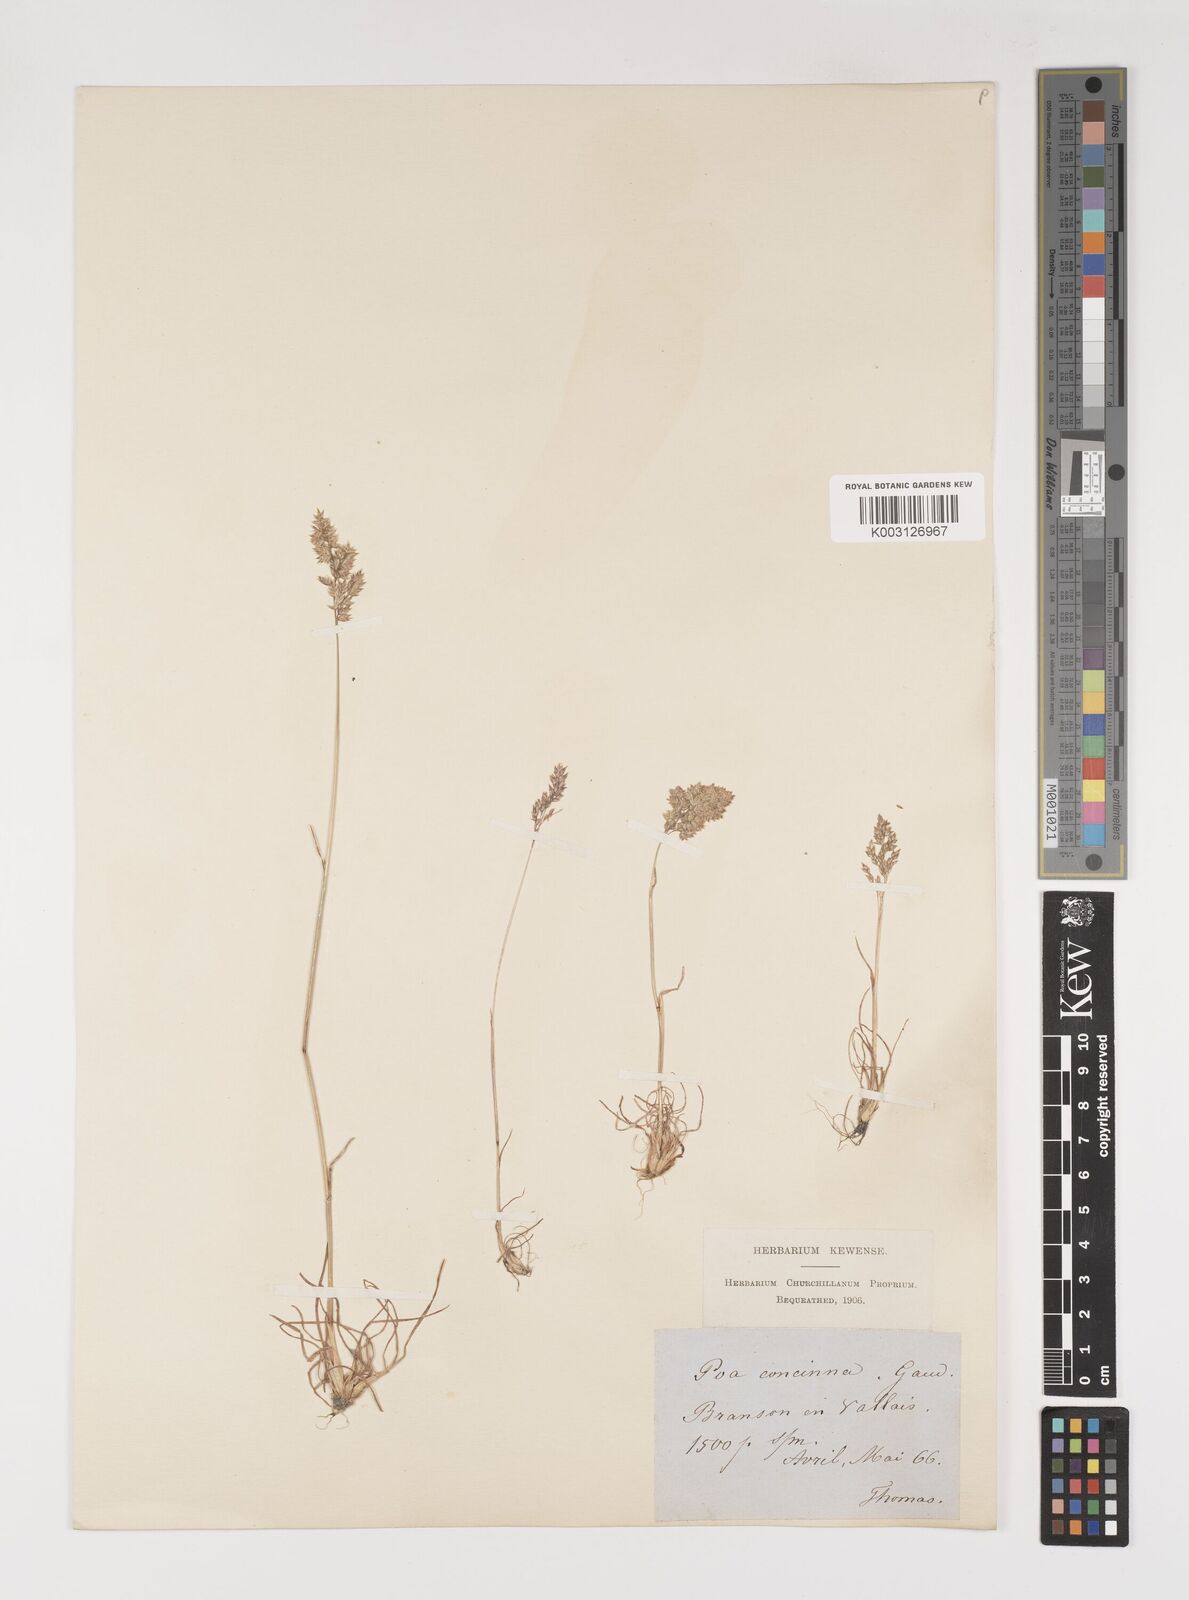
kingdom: Plantae
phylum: Tracheophyta
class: Liliopsida
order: Poales
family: Poaceae
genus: Poa
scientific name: Poa perconcinna
